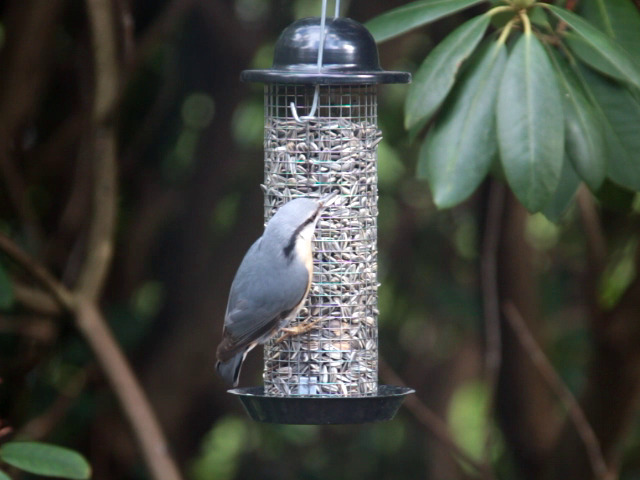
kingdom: Animalia
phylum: Chordata
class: Aves
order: Passeriformes
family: Sittidae
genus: Sitta
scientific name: Sitta europaea
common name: Spætmejse
